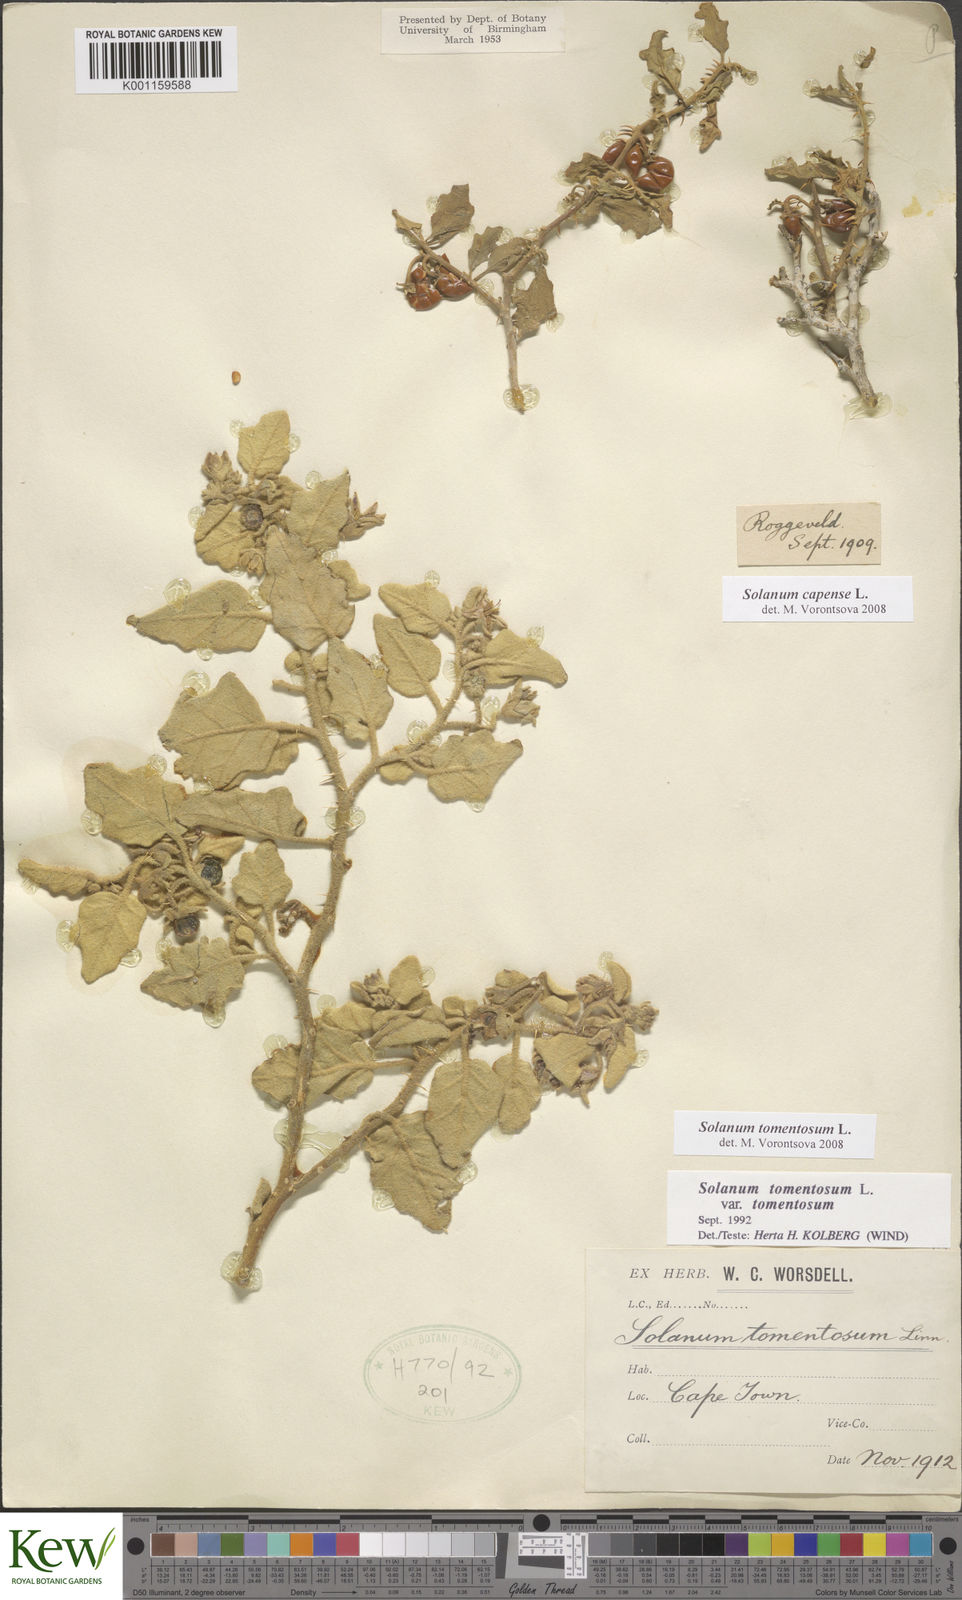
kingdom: Plantae
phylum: Tracheophyta
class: Magnoliopsida
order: Solanales
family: Solanaceae
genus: Solanum
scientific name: Solanum tomentosum
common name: Wild aubergine
